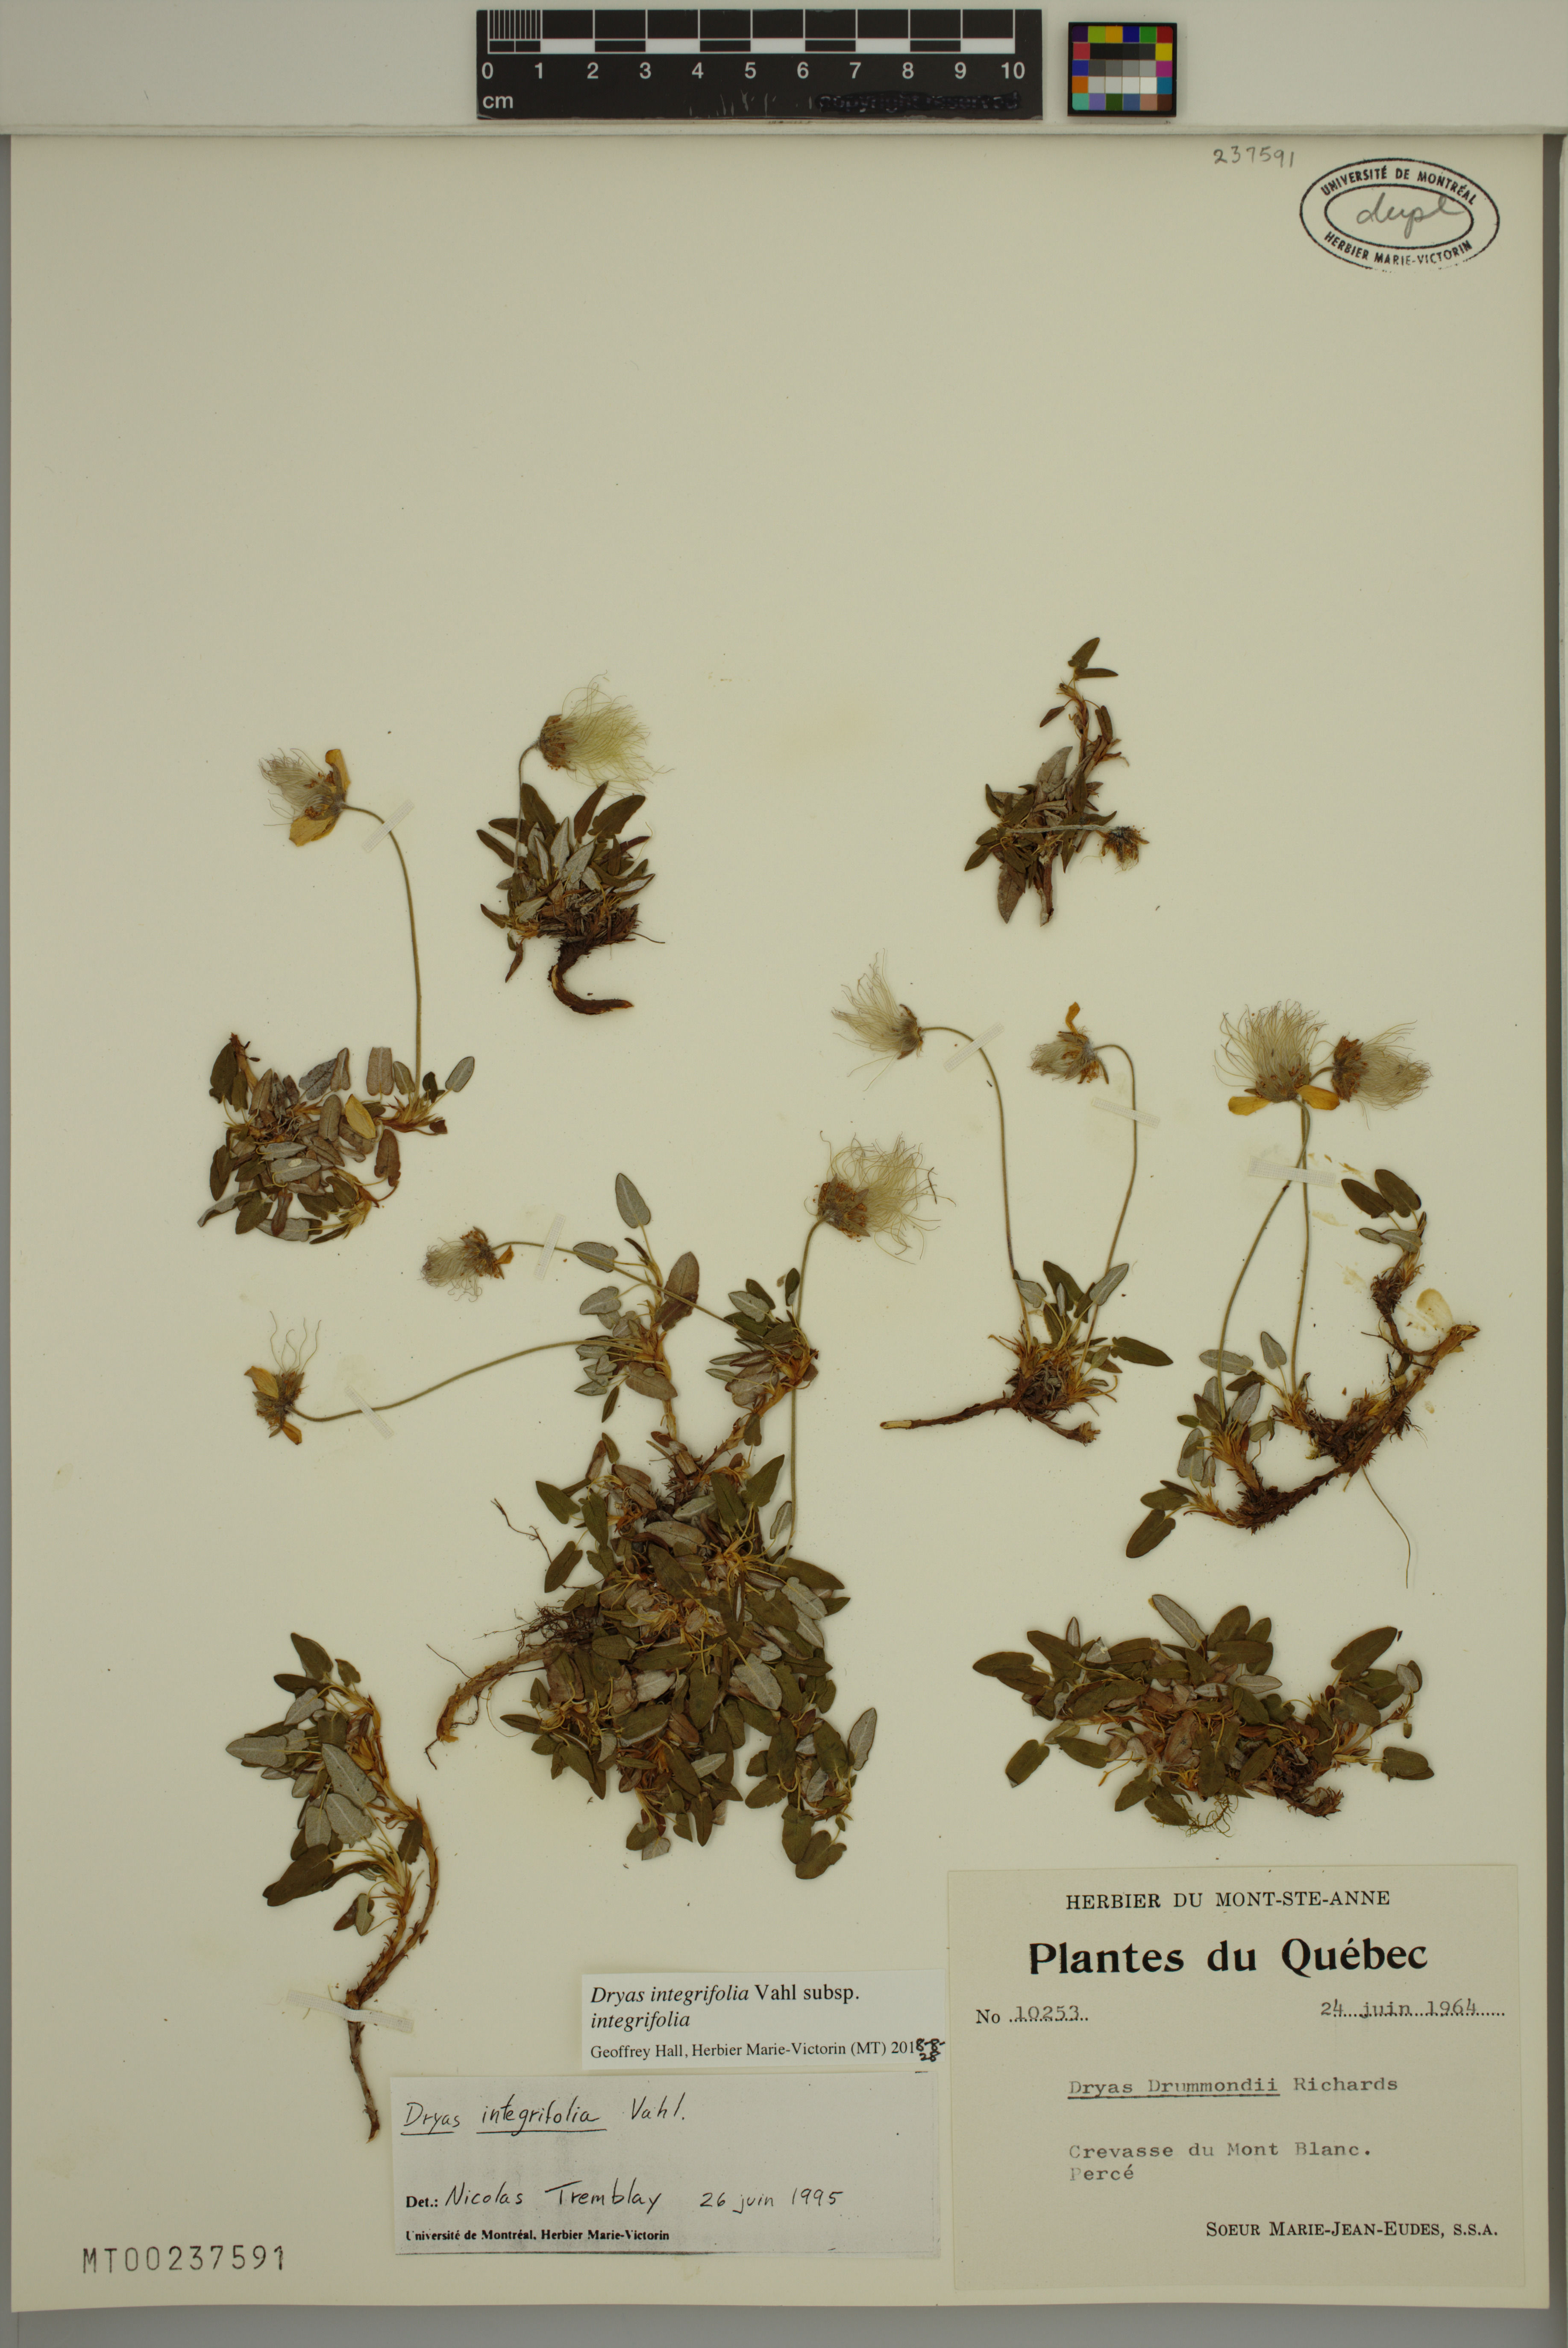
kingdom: Plantae
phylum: Tracheophyta
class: Magnoliopsida
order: Rosales
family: Rosaceae
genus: Dryas
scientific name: Dryas integrifolia
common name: Entire-leaved mountain avens
